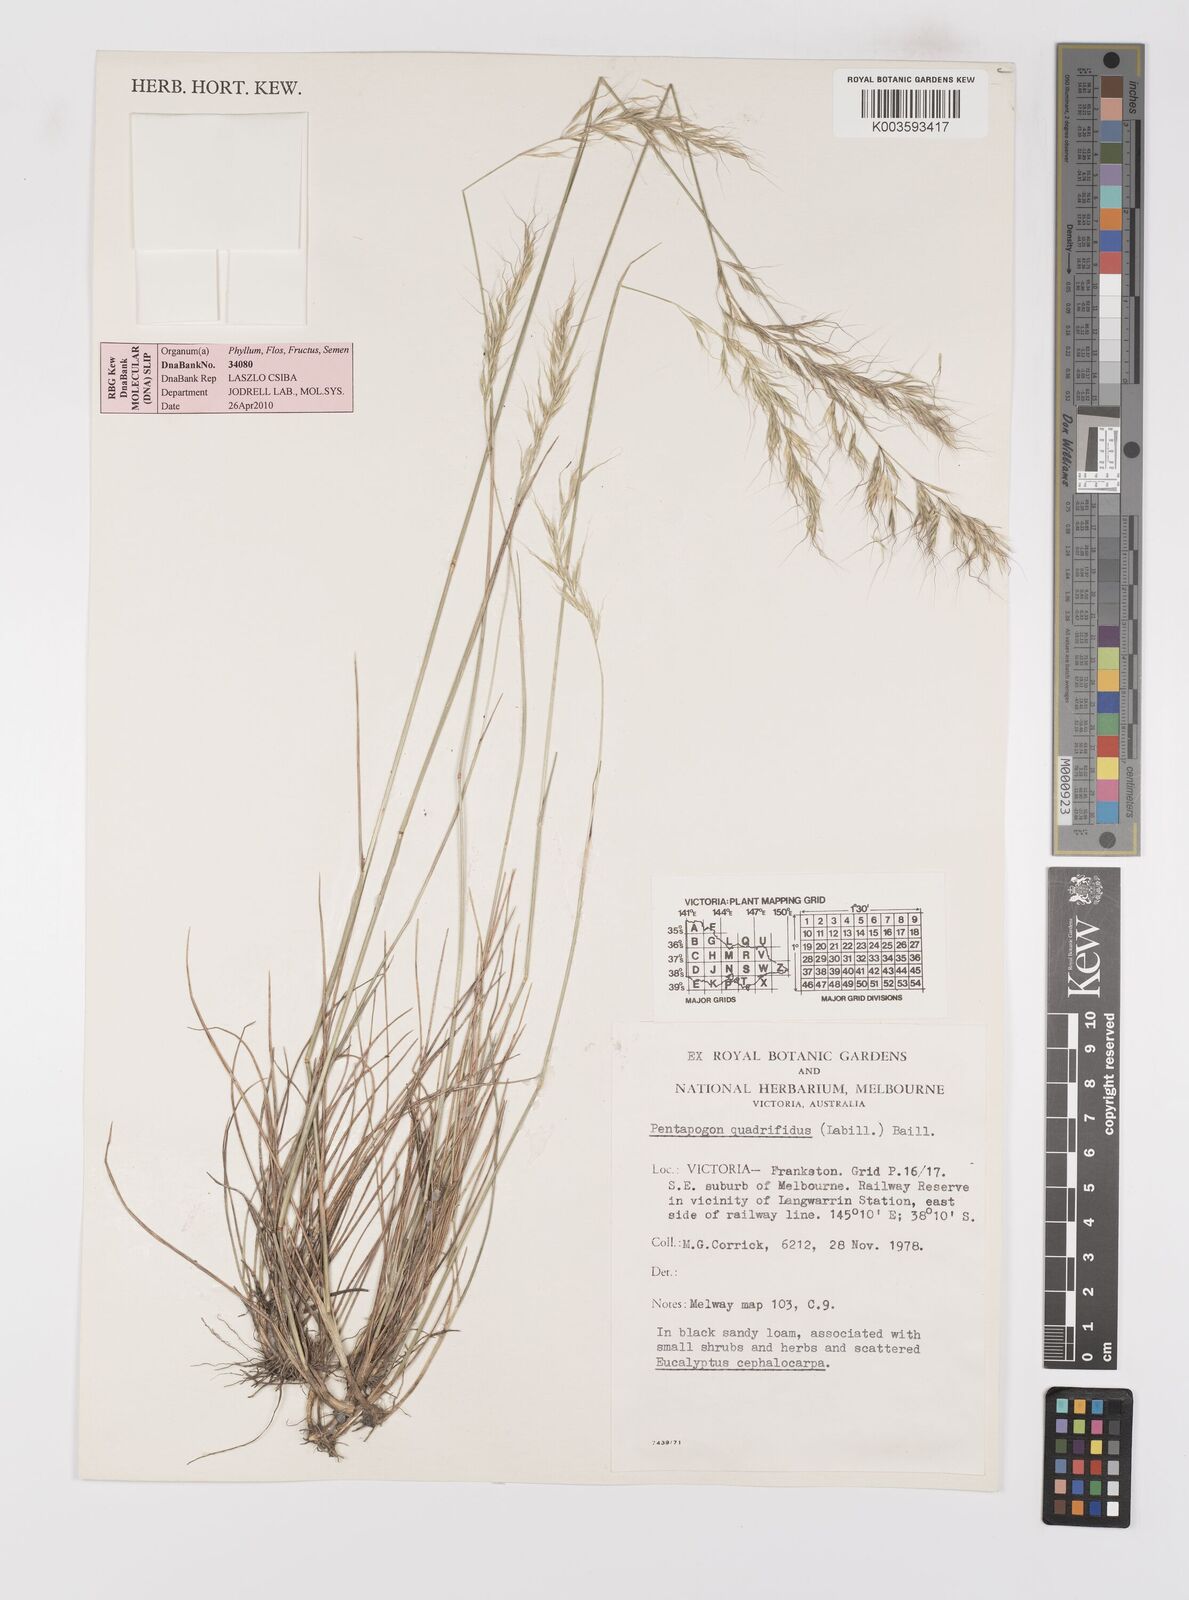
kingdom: Plantae
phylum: Tracheophyta
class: Liliopsida
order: Poales
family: Poaceae
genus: Pentapogon
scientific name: Pentapogon quadrifidus
